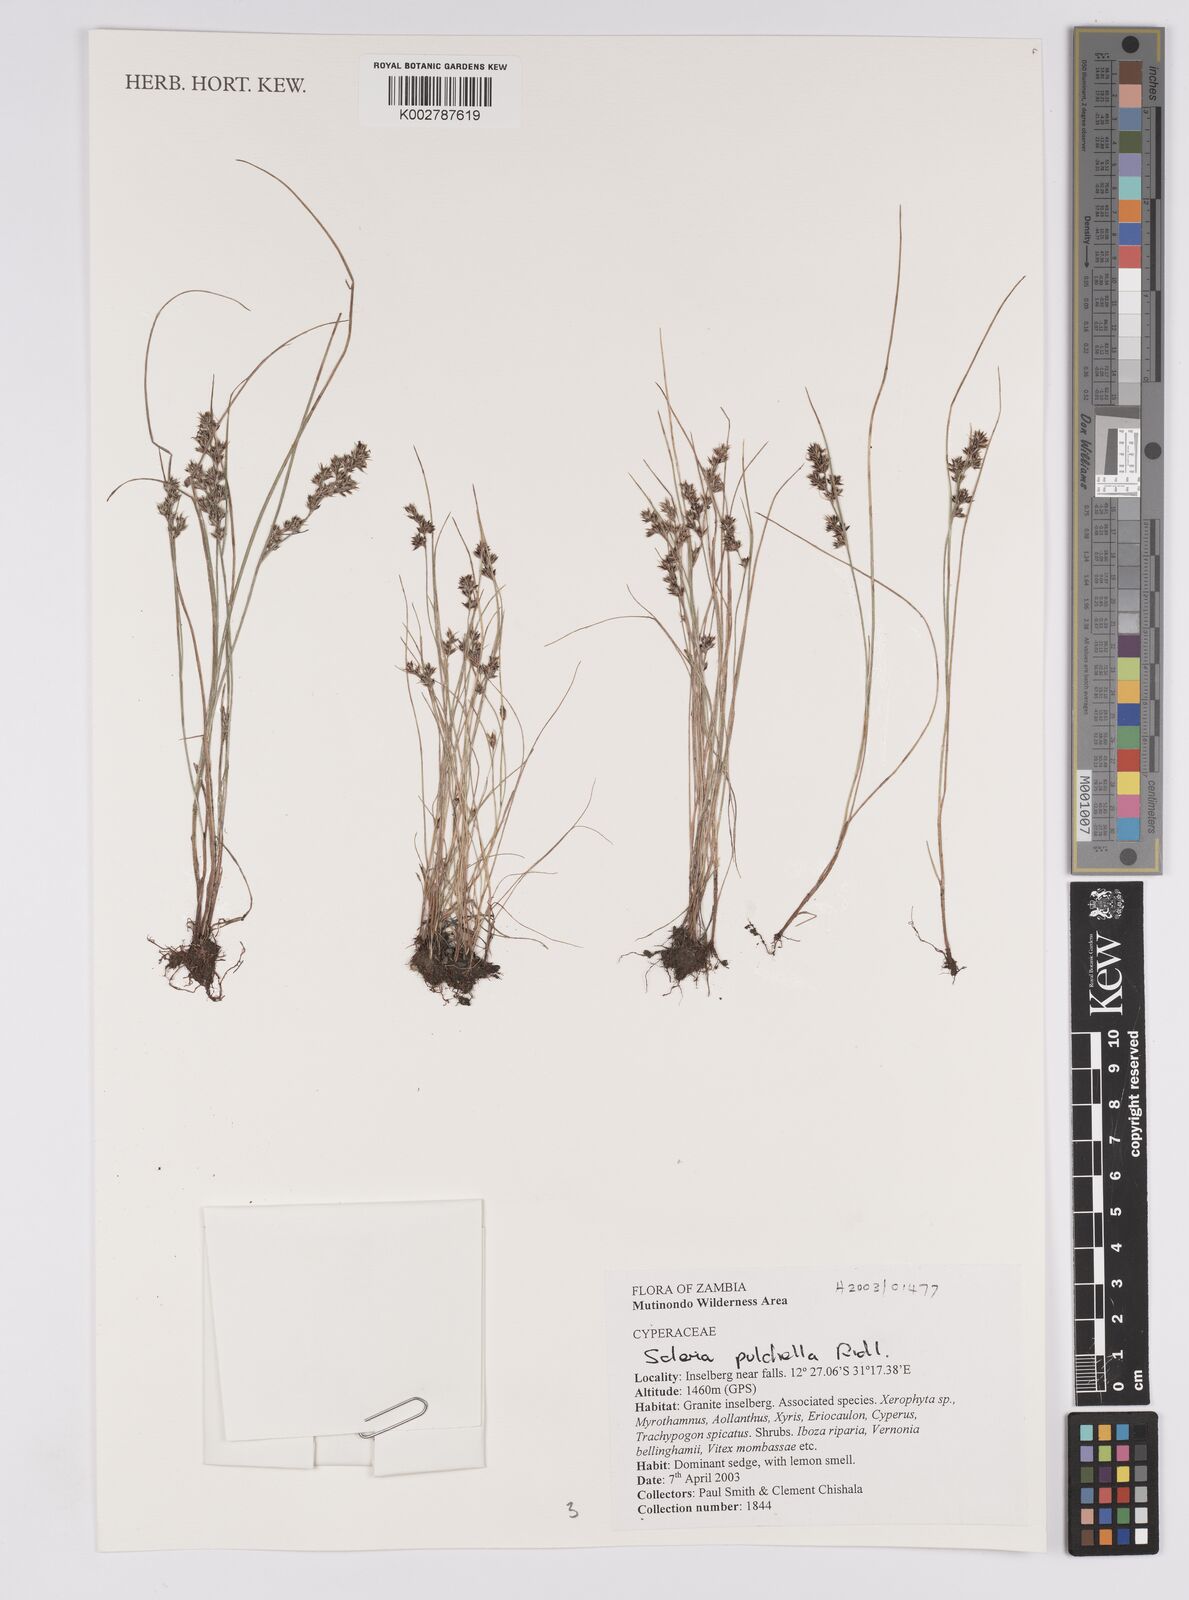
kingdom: Plantae
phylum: Tracheophyta
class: Liliopsida
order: Poales
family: Cyperaceae
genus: Scleria
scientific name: Scleria pulchella
